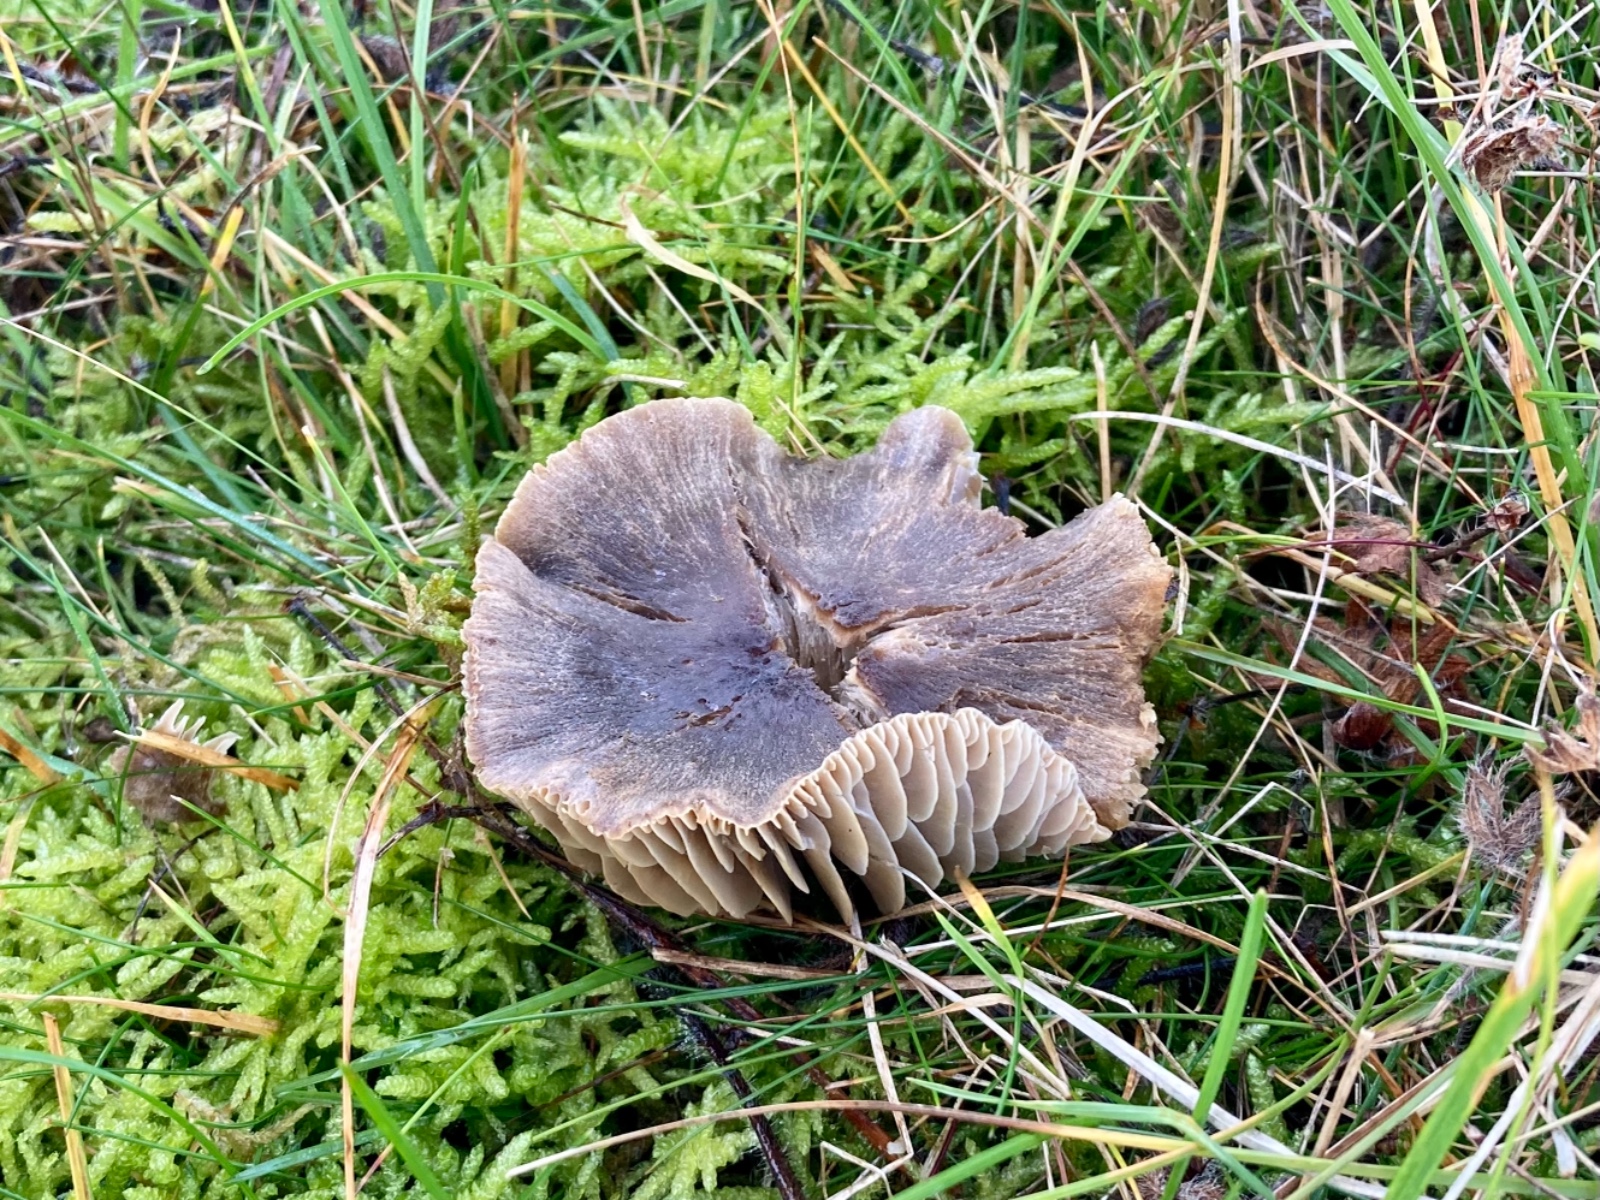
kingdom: Fungi
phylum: Basidiomycota
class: Agaricomycetes
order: Agaricales
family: Hygrophoraceae
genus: Neohygrocybe
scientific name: Neohygrocybe nitrata
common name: stinkende vokshat
